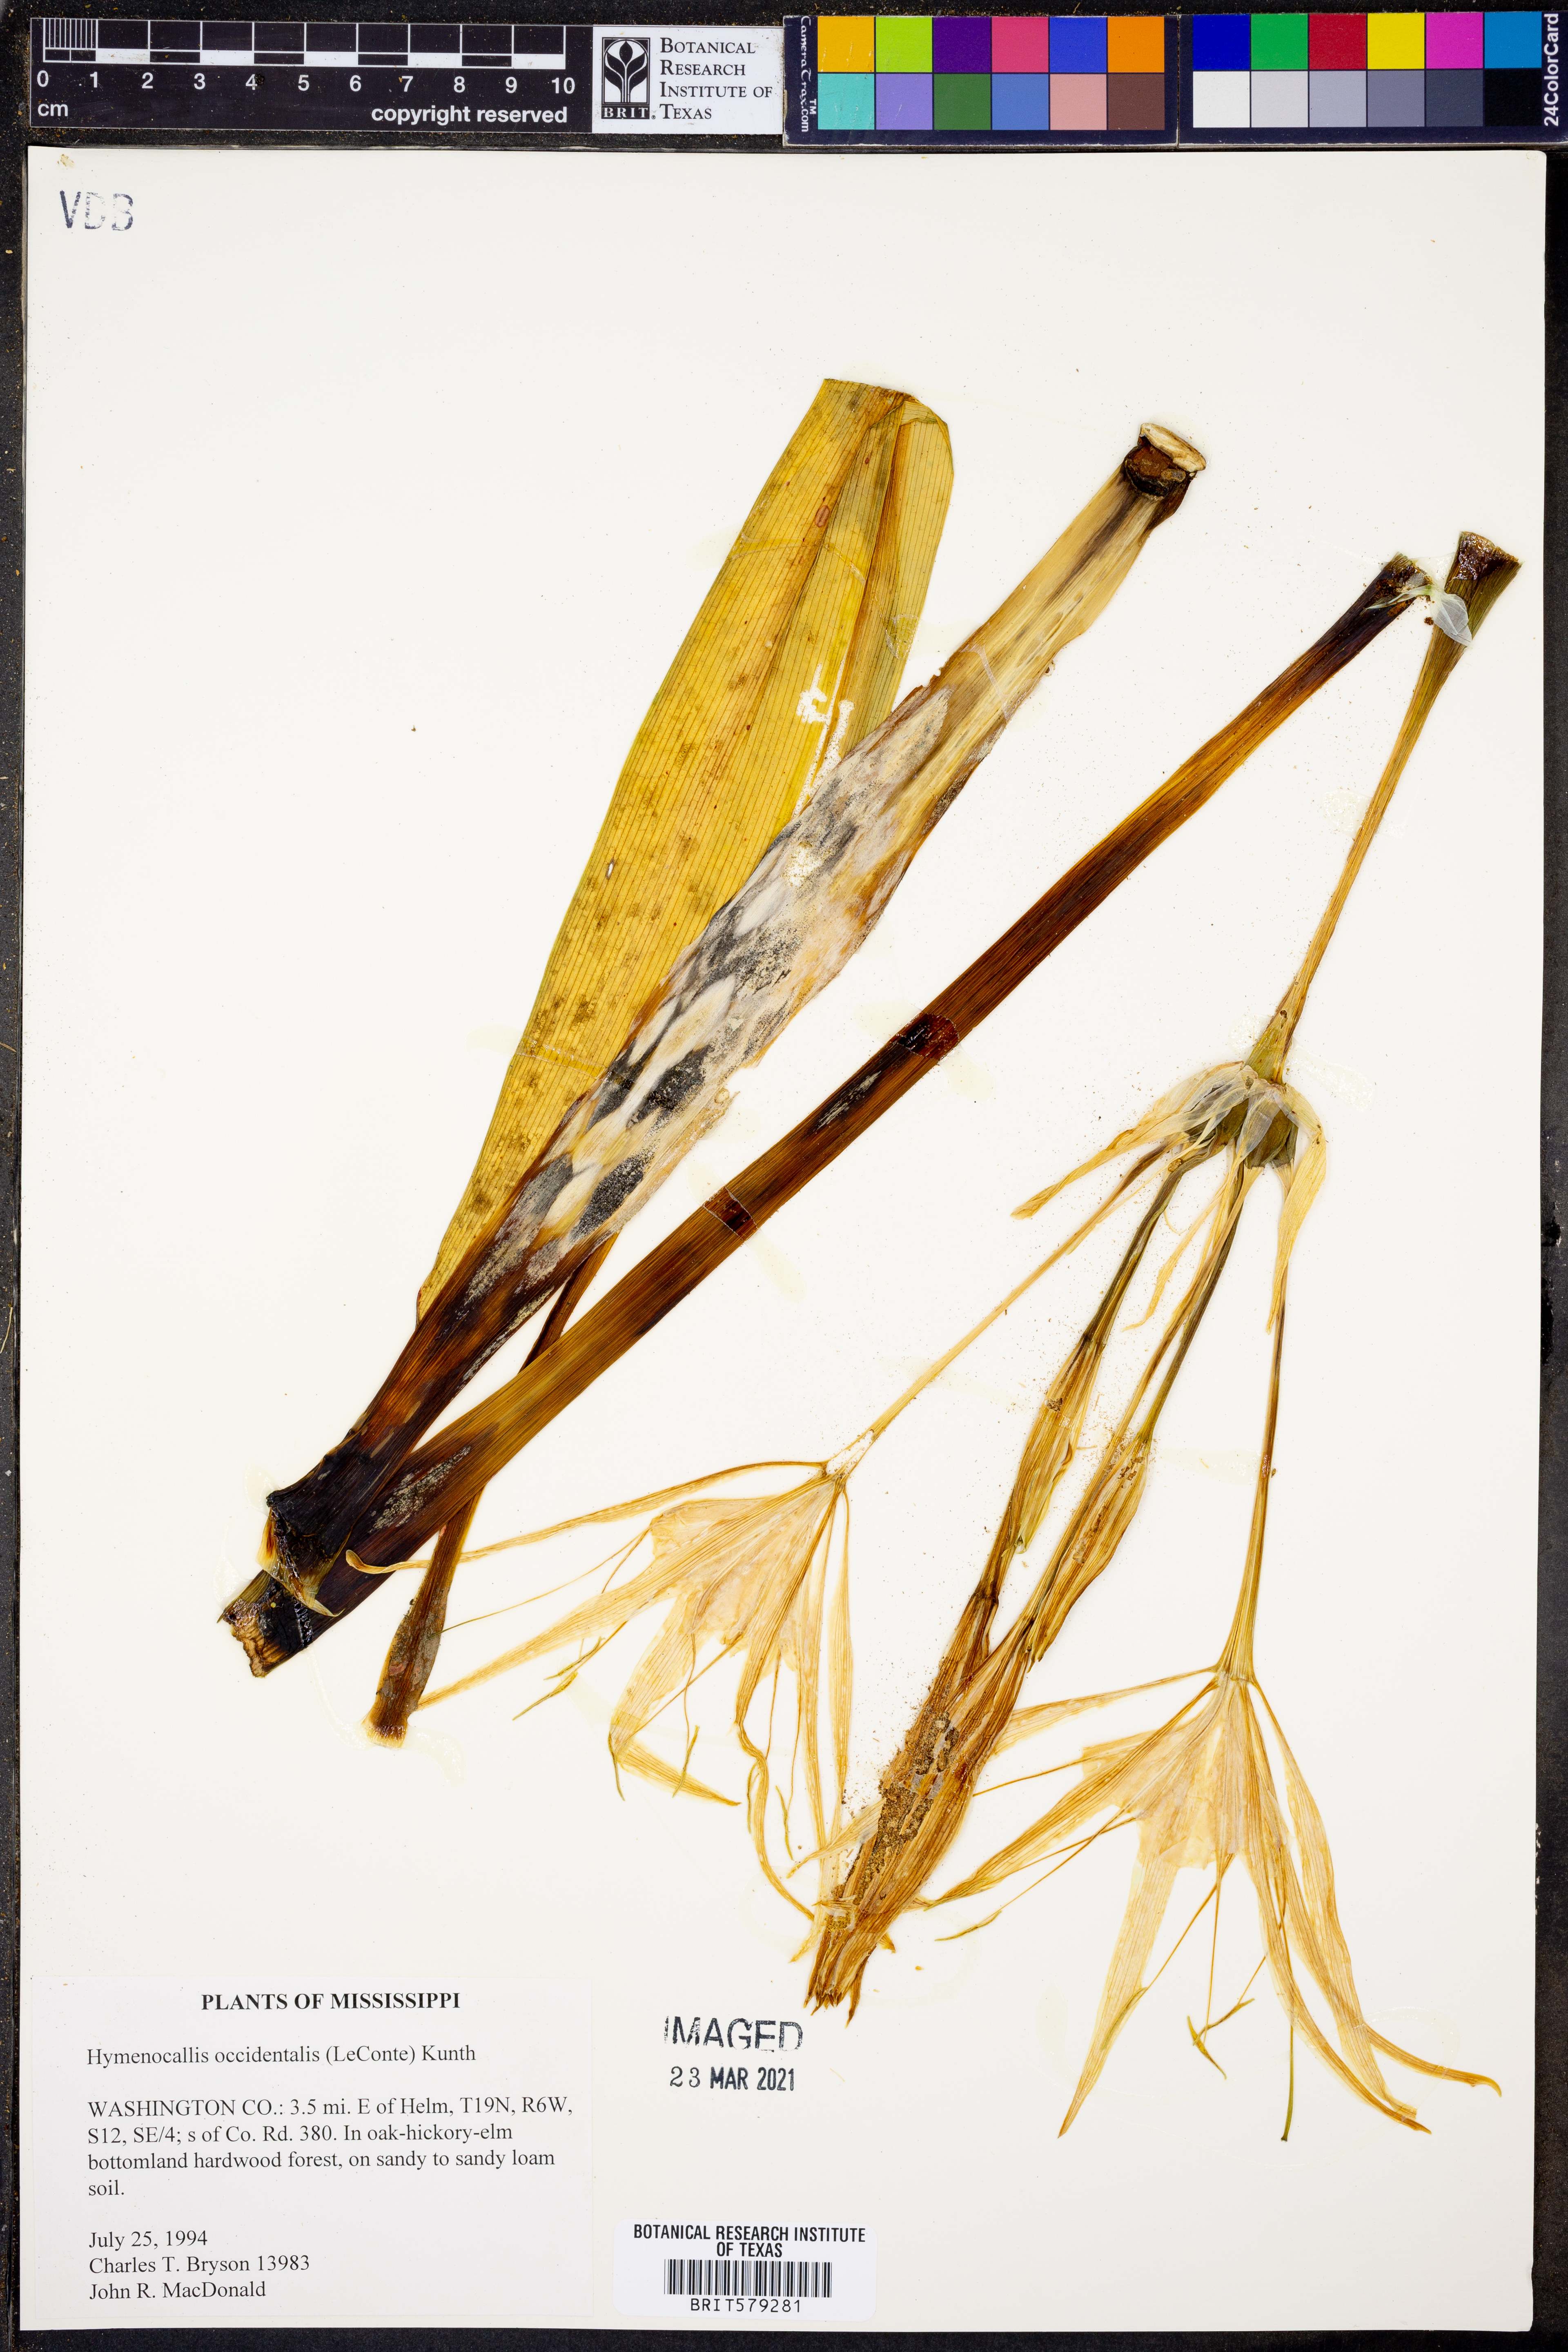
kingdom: Plantae
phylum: Tracheophyta
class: Liliopsida
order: Asparagales
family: Amaryllidaceae
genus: Hymenocallis
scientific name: Hymenocallis occidentalis
